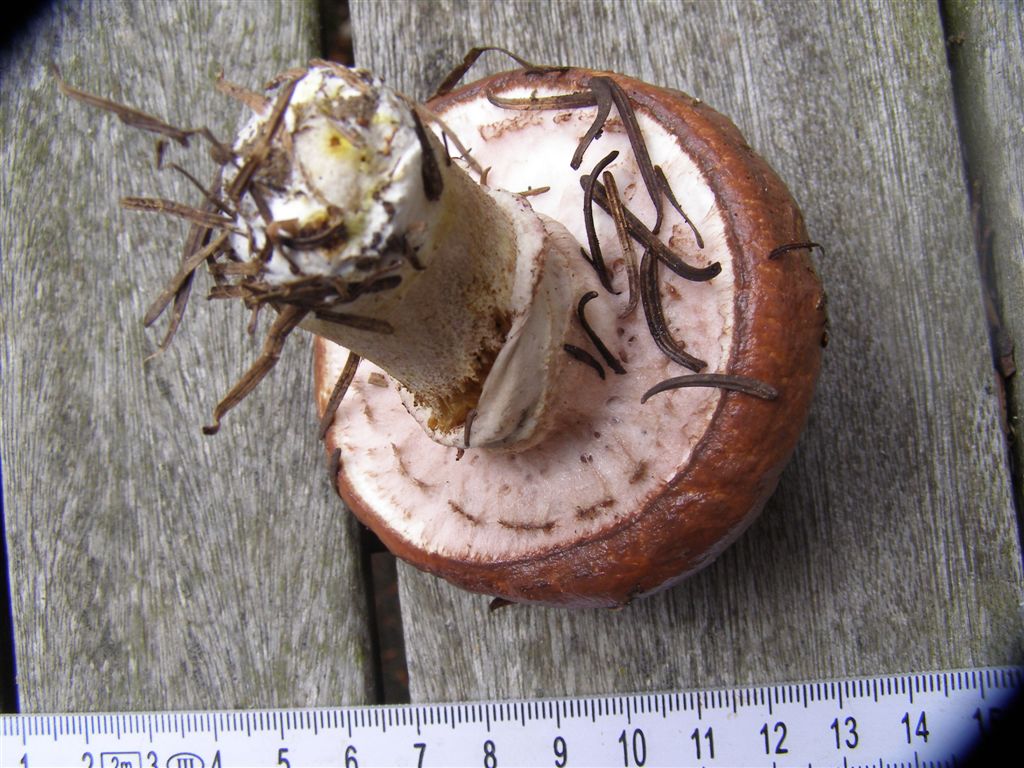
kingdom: Fungi
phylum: Basidiomycota
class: Agaricomycetes
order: Boletales
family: Suillaceae
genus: Suillus
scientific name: Suillus luteus
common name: brungul slimrørhat
